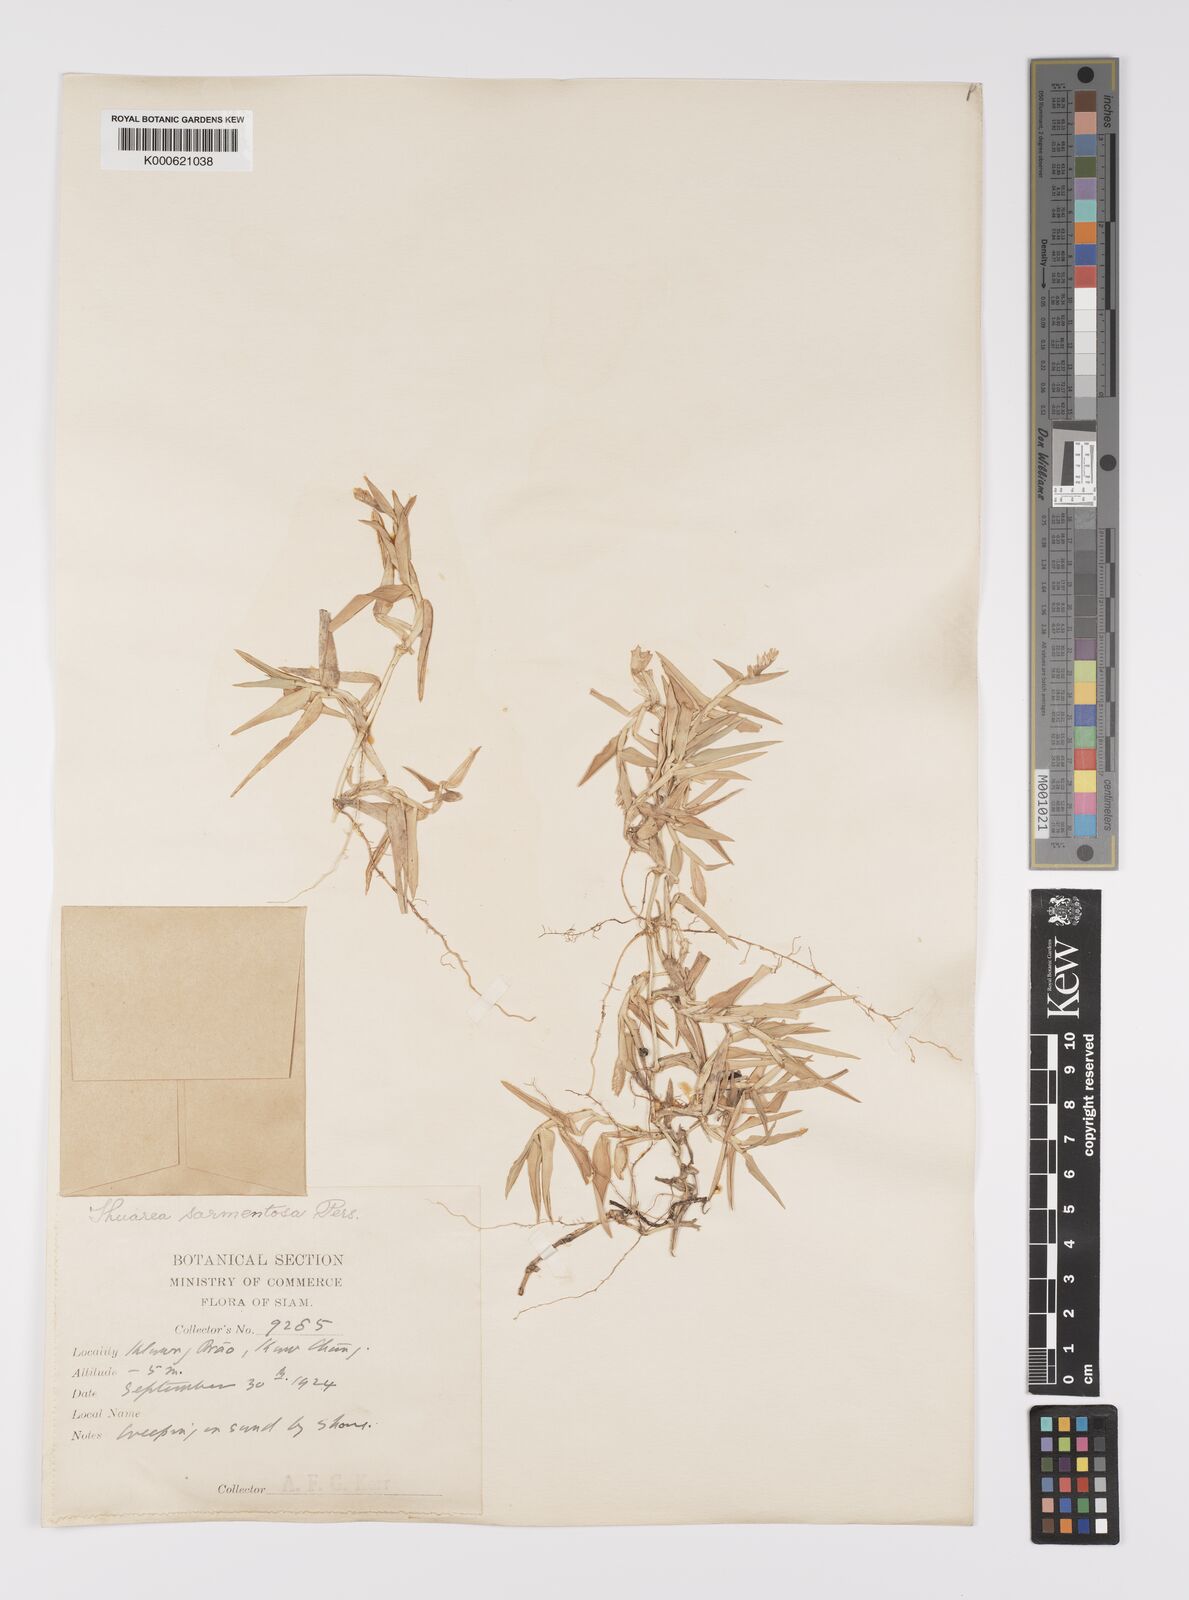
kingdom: Plantae
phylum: Tracheophyta
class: Liliopsida
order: Poales
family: Poaceae
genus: Thuarea
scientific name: Thuarea involuta
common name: Tropical beach grass
